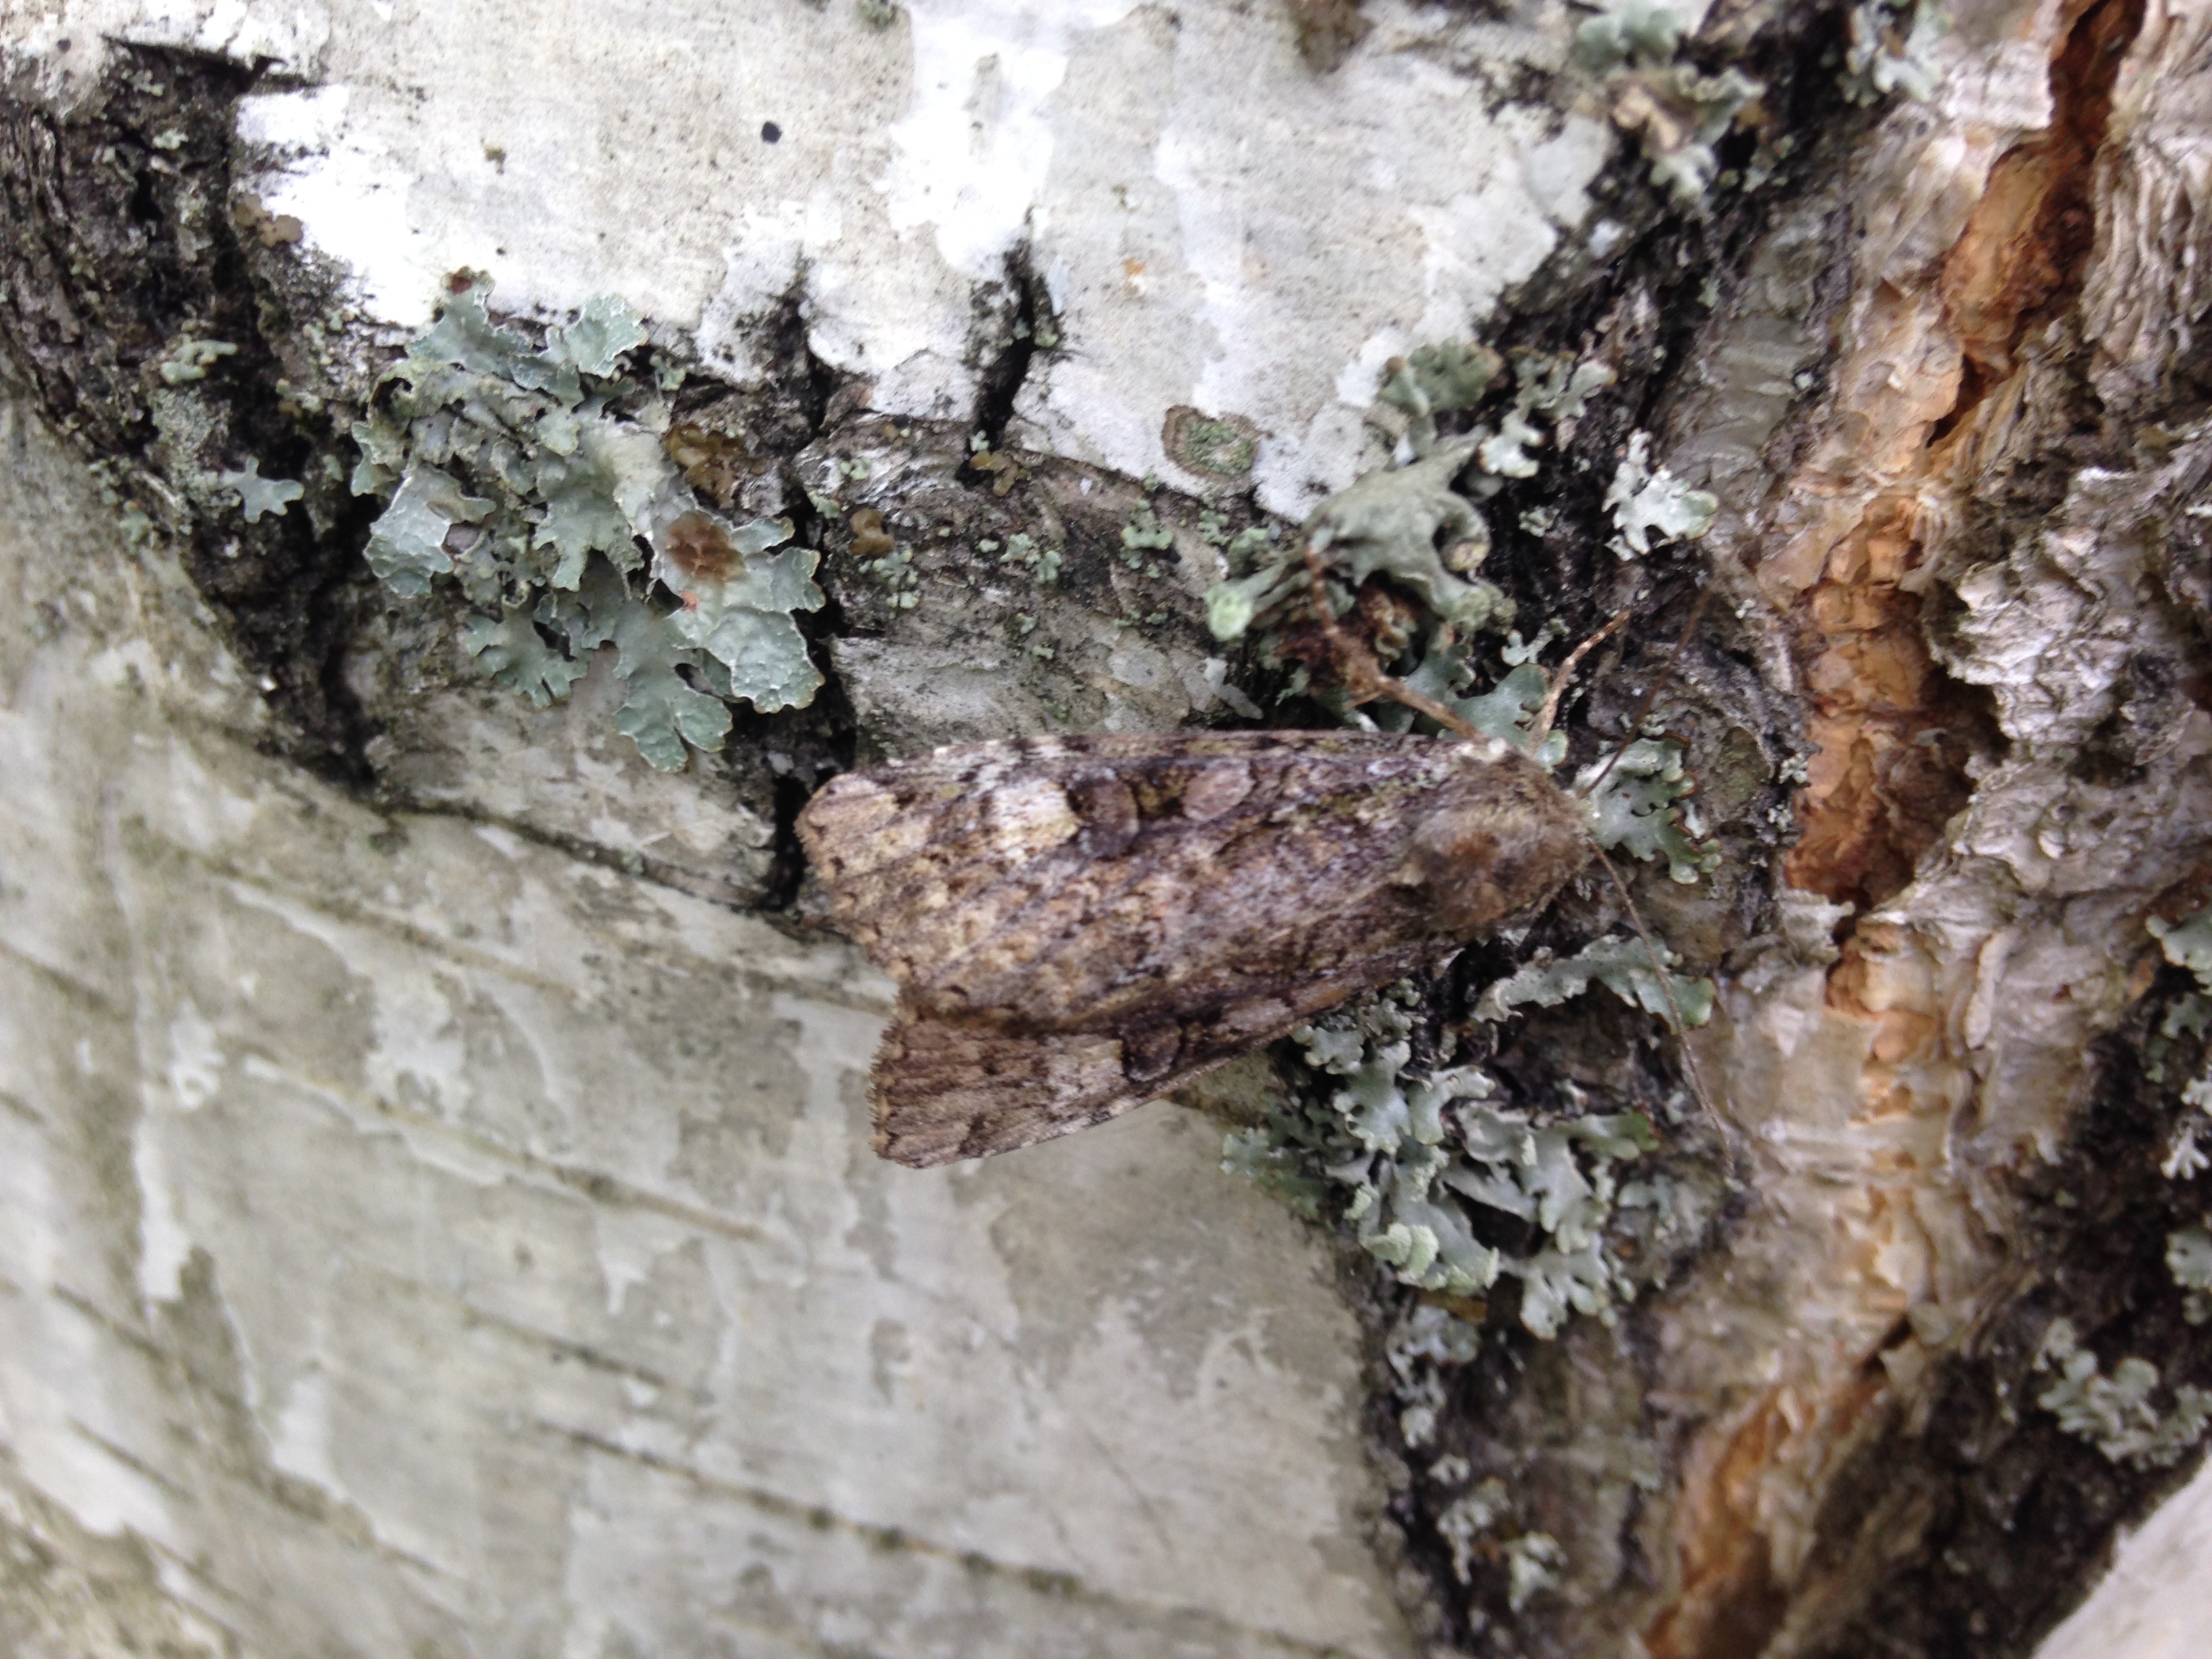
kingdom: Animalia
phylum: Arthropoda
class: Insecta
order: Lepidoptera
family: Noctuidae
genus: Anaplectoides
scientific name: Anaplectoides prasina
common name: Green arches
